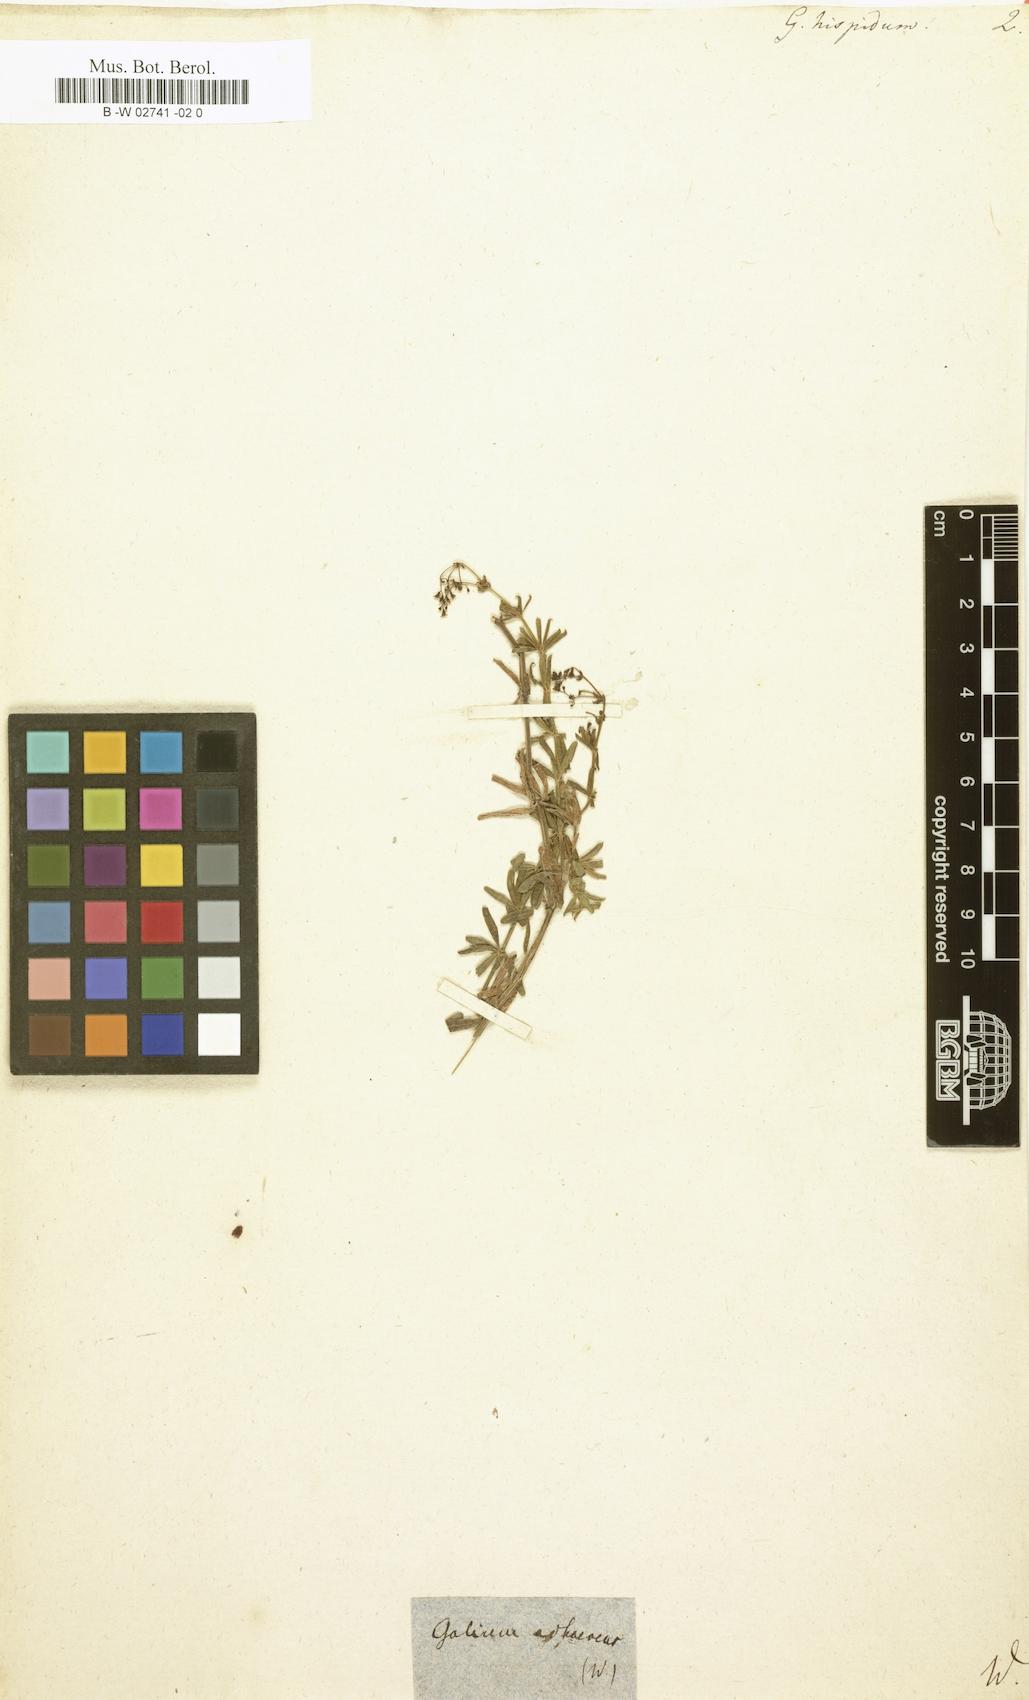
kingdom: Plantae
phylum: Tracheophyta
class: Magnoliopsida
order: Gentianales
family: Rubiaceae
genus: Galium
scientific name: Galium hispidum
